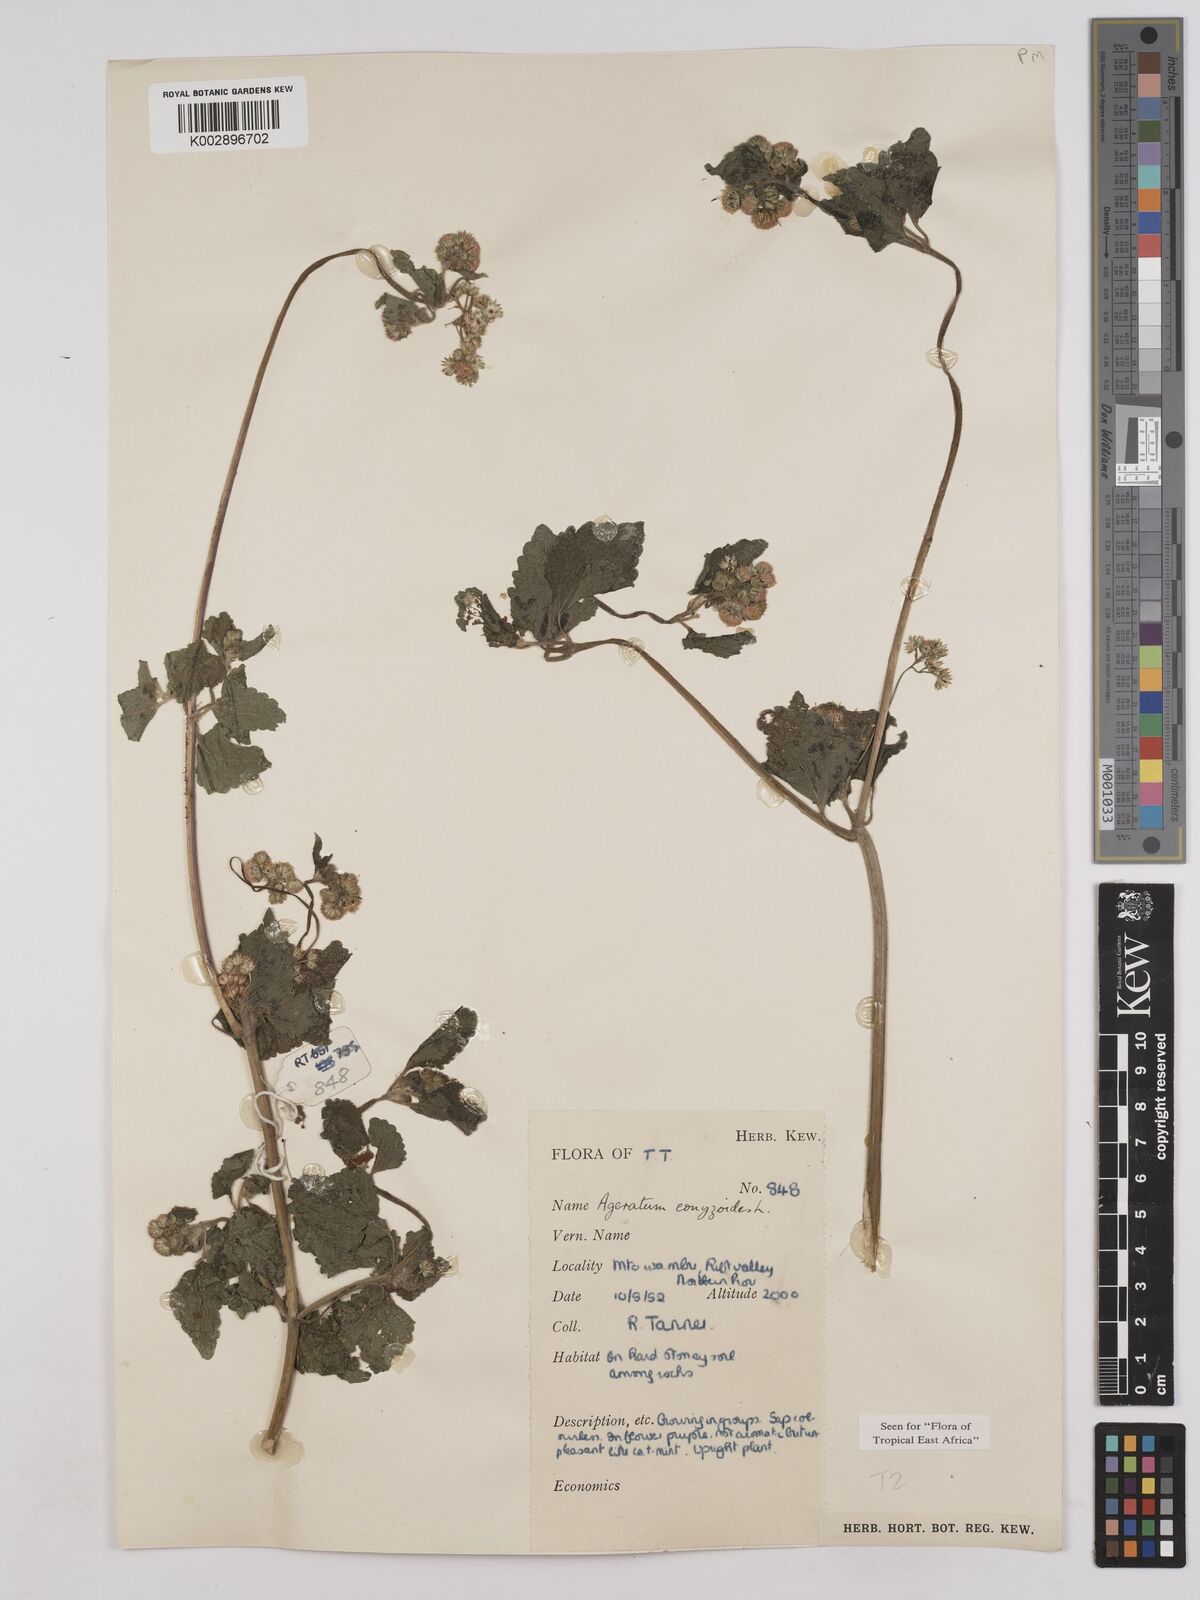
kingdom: Plantae
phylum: Tracheophyta
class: Magnoliopsida
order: Asterales
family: Asteraceae
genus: Ageratum
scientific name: Ageratum conyzoides
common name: Tropical whiteweed
